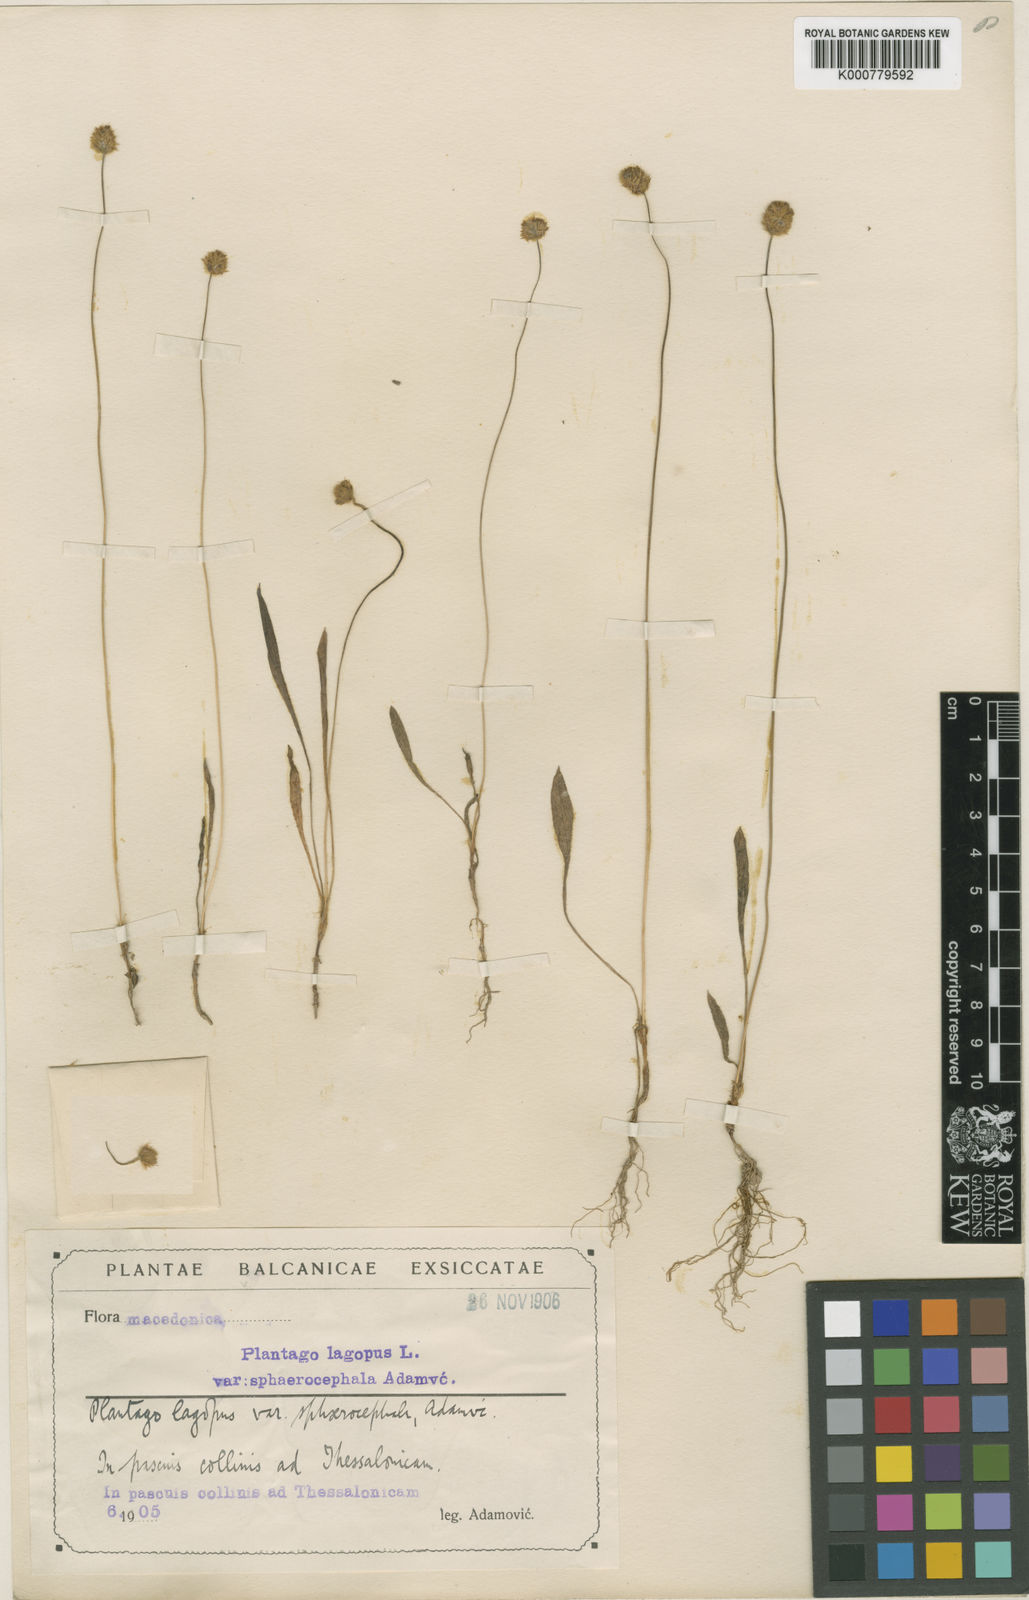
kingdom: Plantae
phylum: Tracheophyta
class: Magnoliopsida
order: Lamiales
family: Plantaginaceae
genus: Plantago
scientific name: Plantago lagopus
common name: Hare-foot plantain
